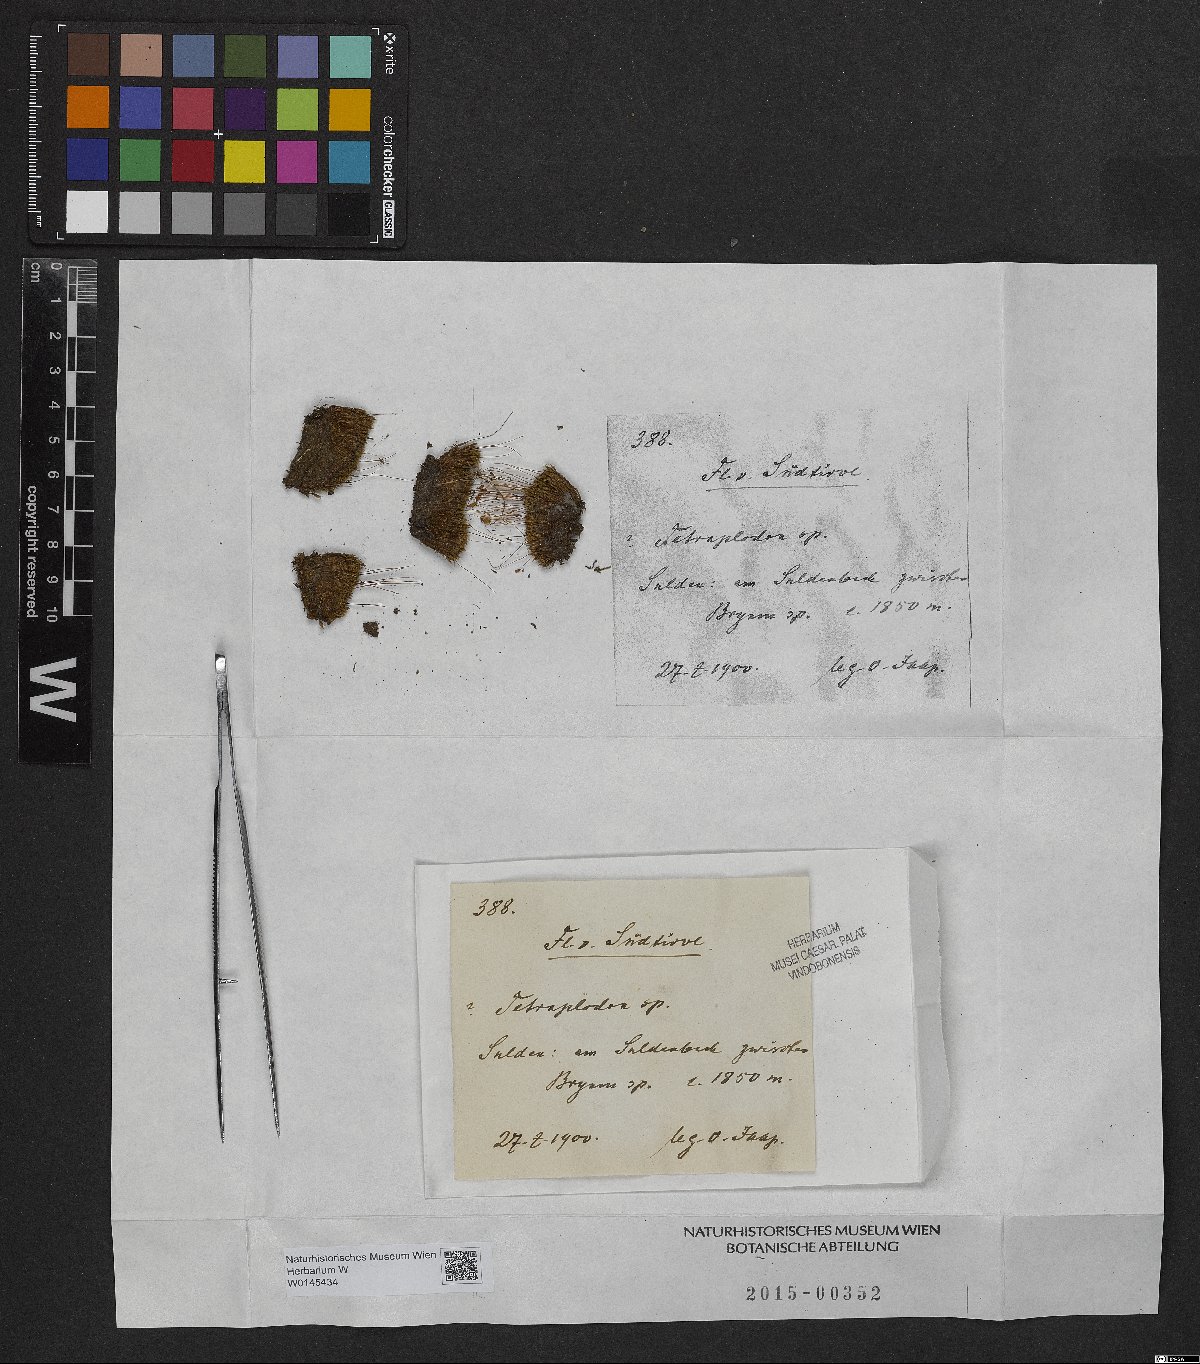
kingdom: Plantae
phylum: Bryophyta
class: Bryopsida
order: Splachnales
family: Splachnaceae
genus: Tetraplodon
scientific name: Tetraplodon
